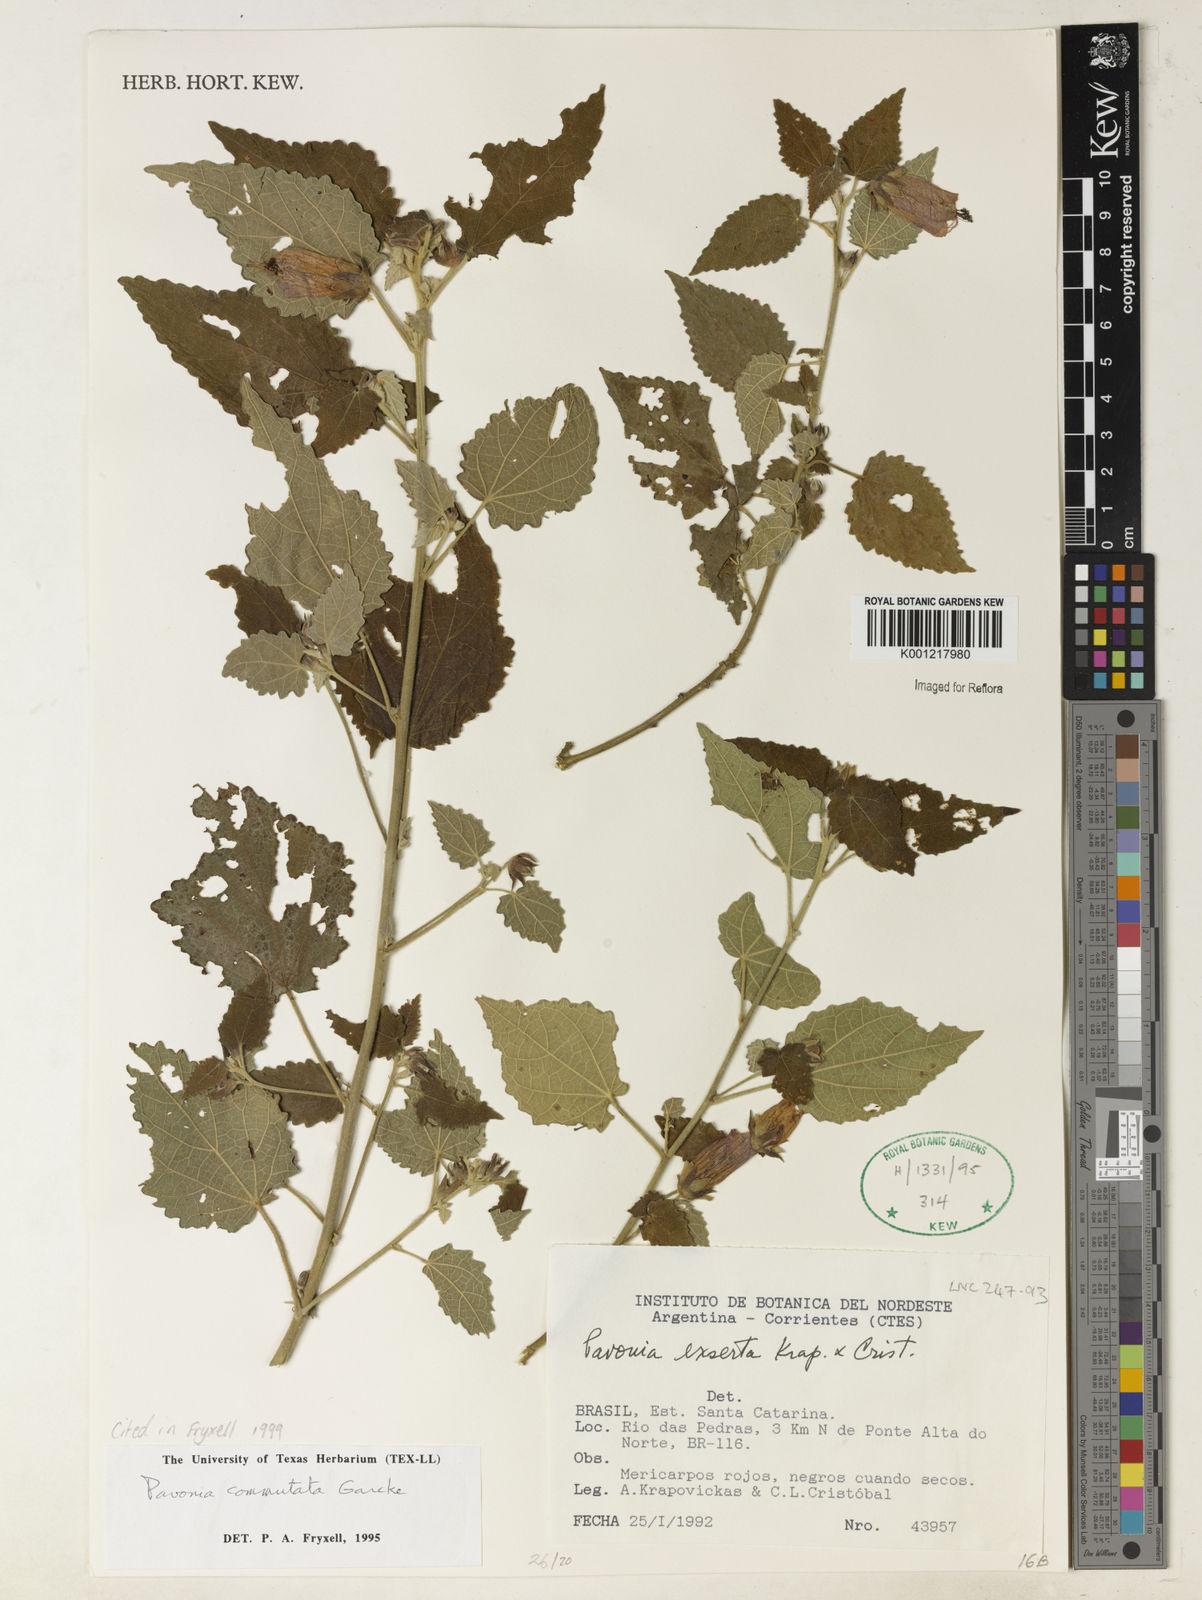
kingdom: Plantae
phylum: Tracheophyta
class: Magnoliopsida
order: Malvales
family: Malvaceae
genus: Pavonia
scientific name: Pavonia commutata
